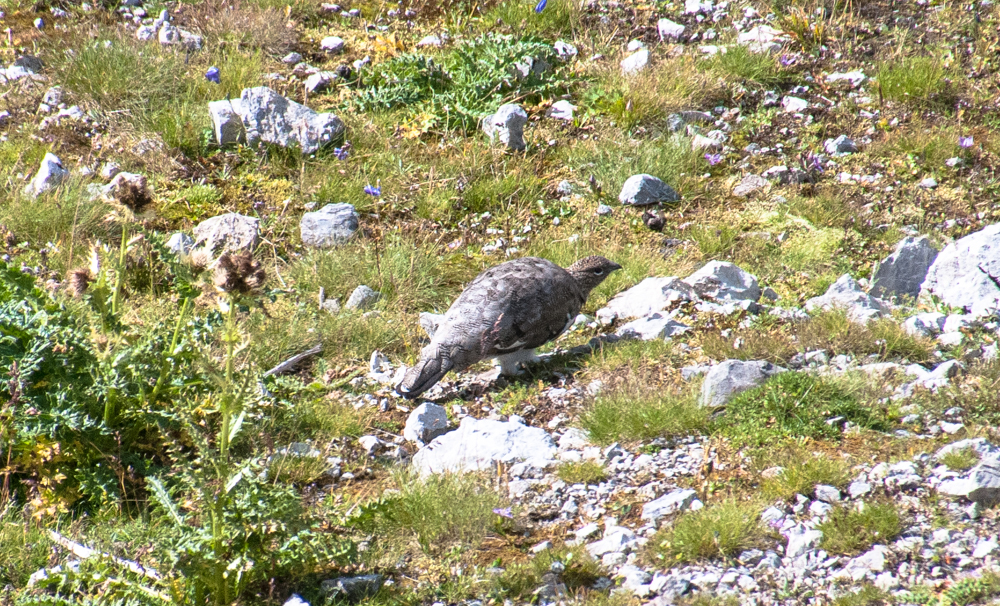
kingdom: Animalia
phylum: Chordata
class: Aves
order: Galliformes
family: Phasianidae
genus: Lagopus
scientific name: Lagopus muta
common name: Rock ptarmigan
